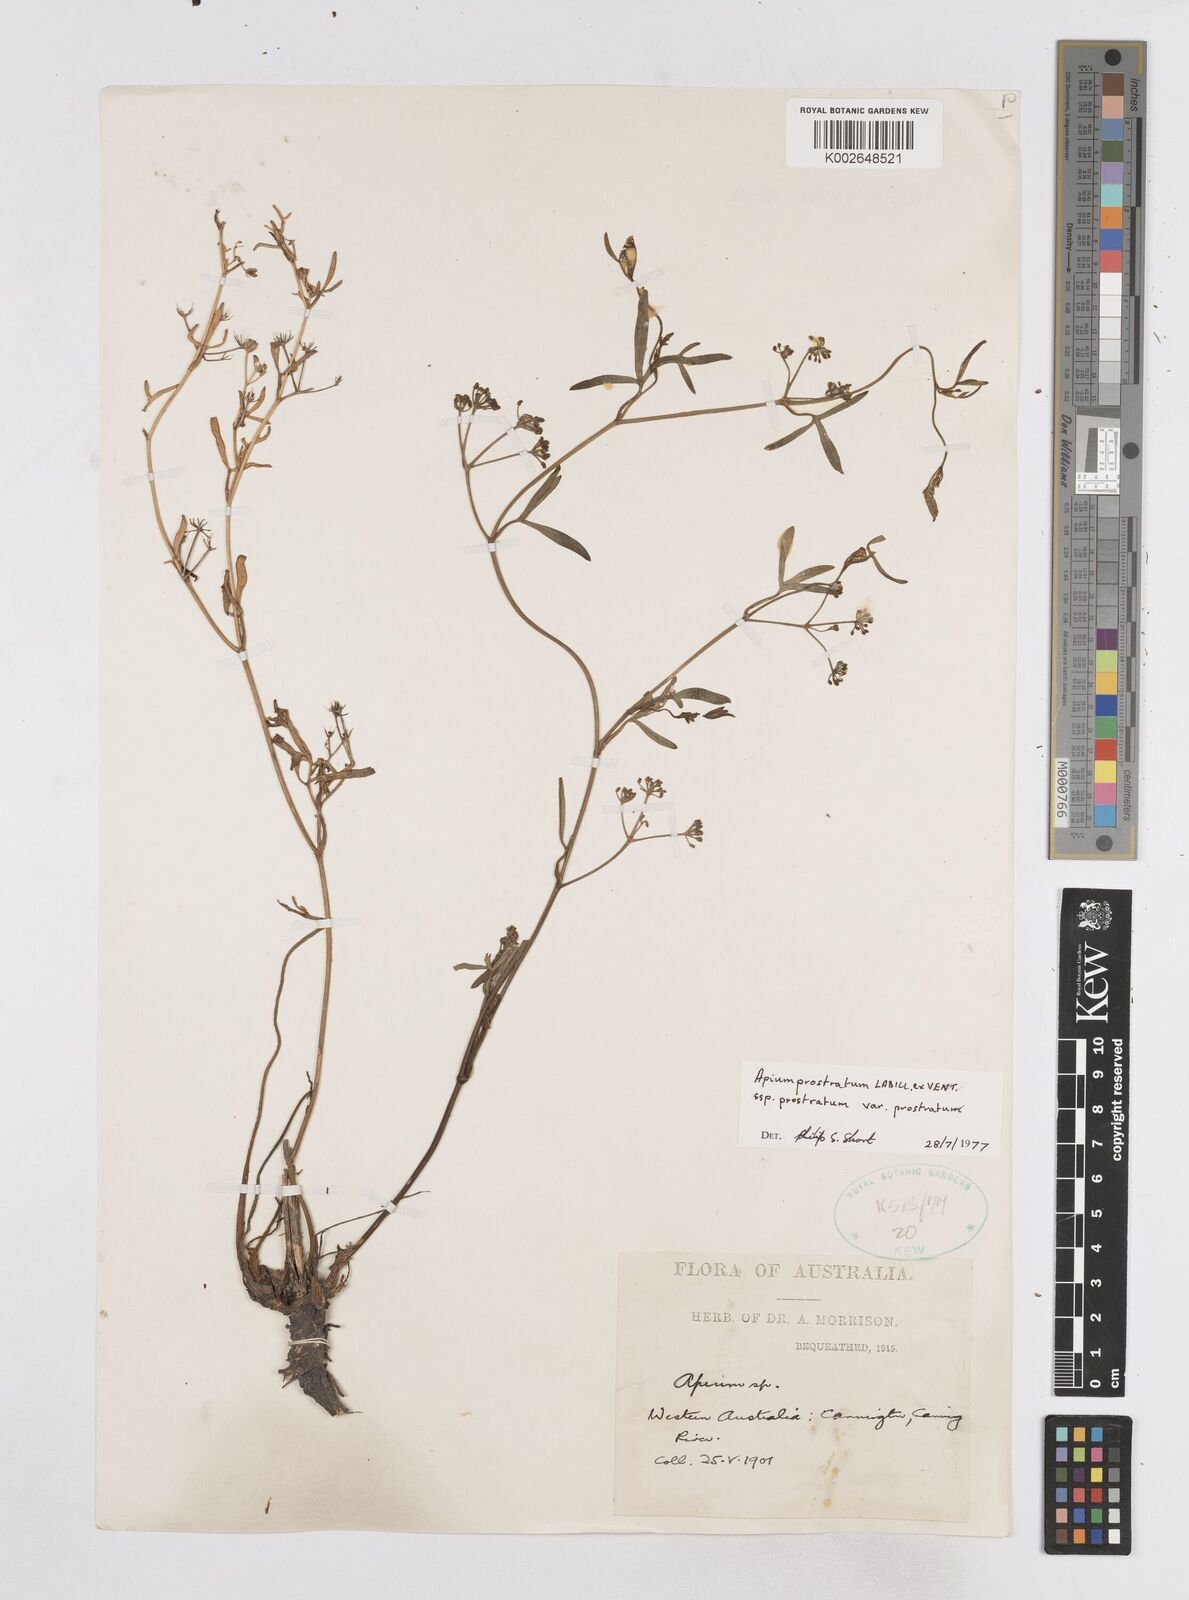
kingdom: Plantae
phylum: Tracheophyta
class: Magnoliopsida
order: Apiales
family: Apiaceae
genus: Apium
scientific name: Apium prostratum
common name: Prostrate marshwort
